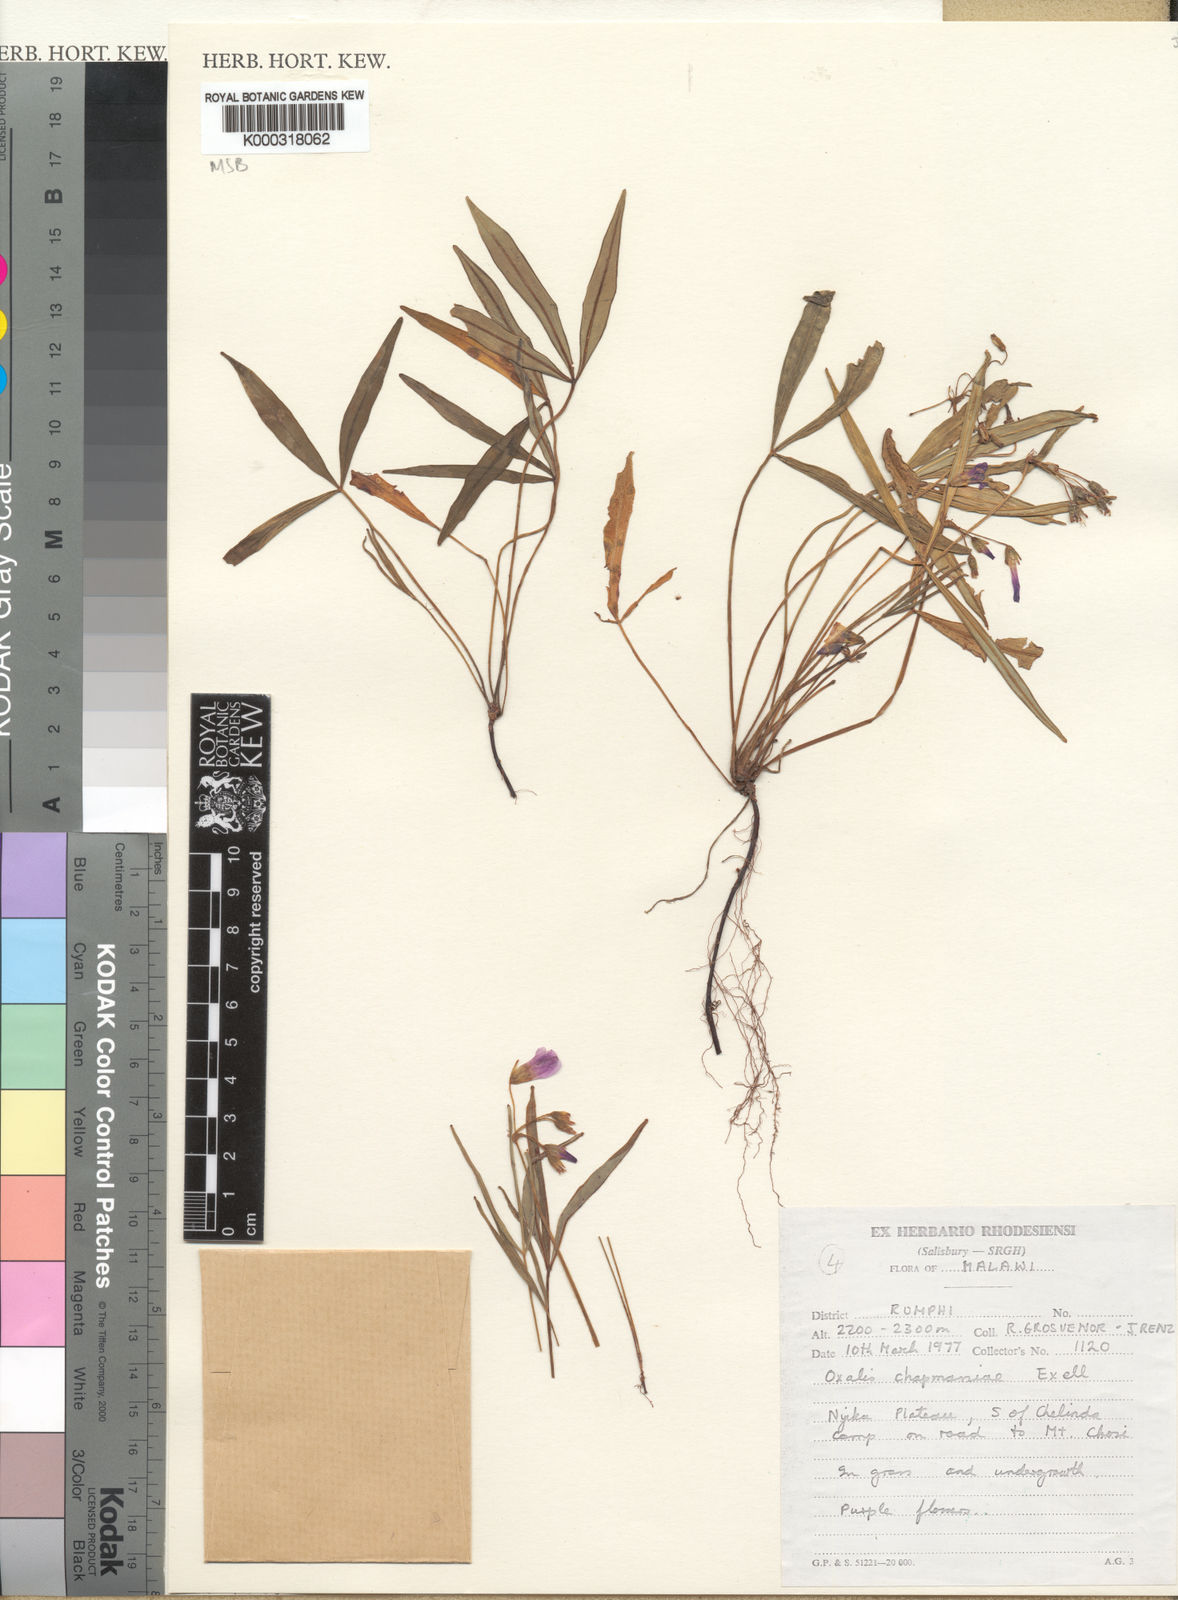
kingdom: Plantae
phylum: Tracheophyta
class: Magnoliopsida
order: Oxalidales
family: Oxalidaceae
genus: Oxalis
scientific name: Oxalis chapmaniae
